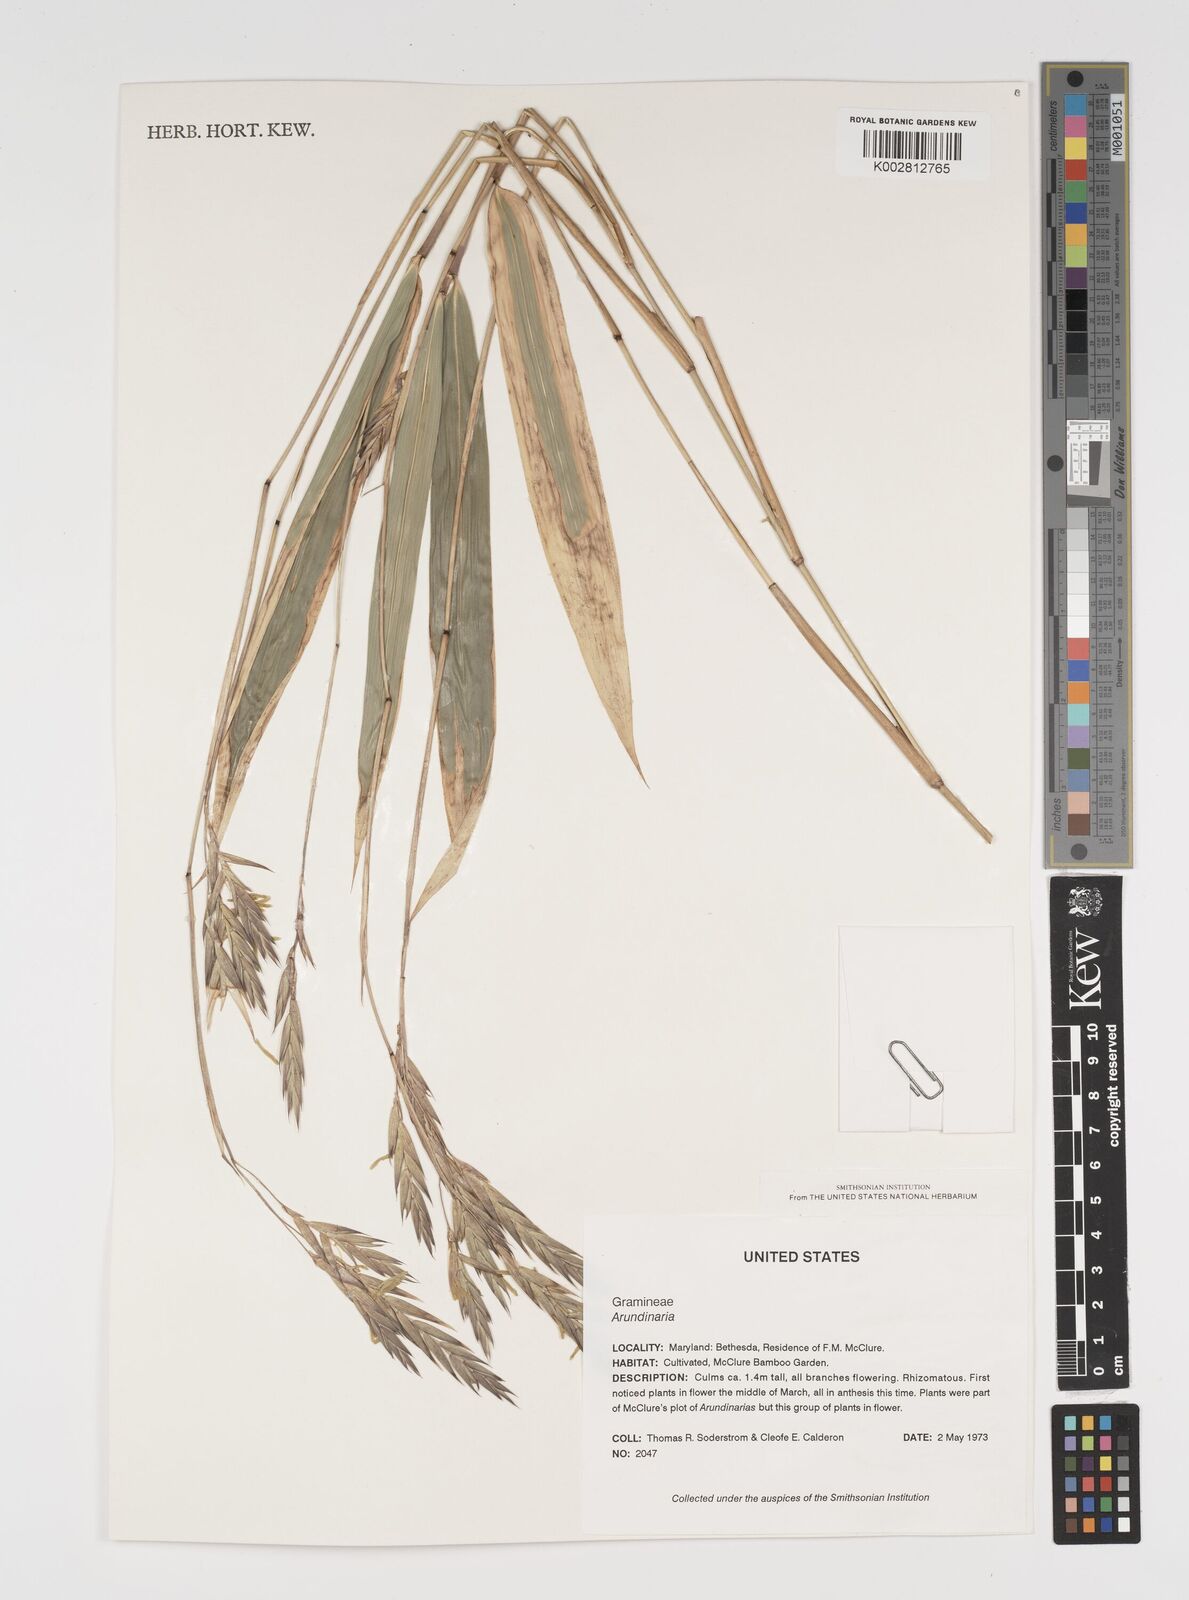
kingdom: Plantae
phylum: Tracheophyta
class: Liliopsida
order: Poales
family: Poaceae
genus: Arundinaria
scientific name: Arundinaria
